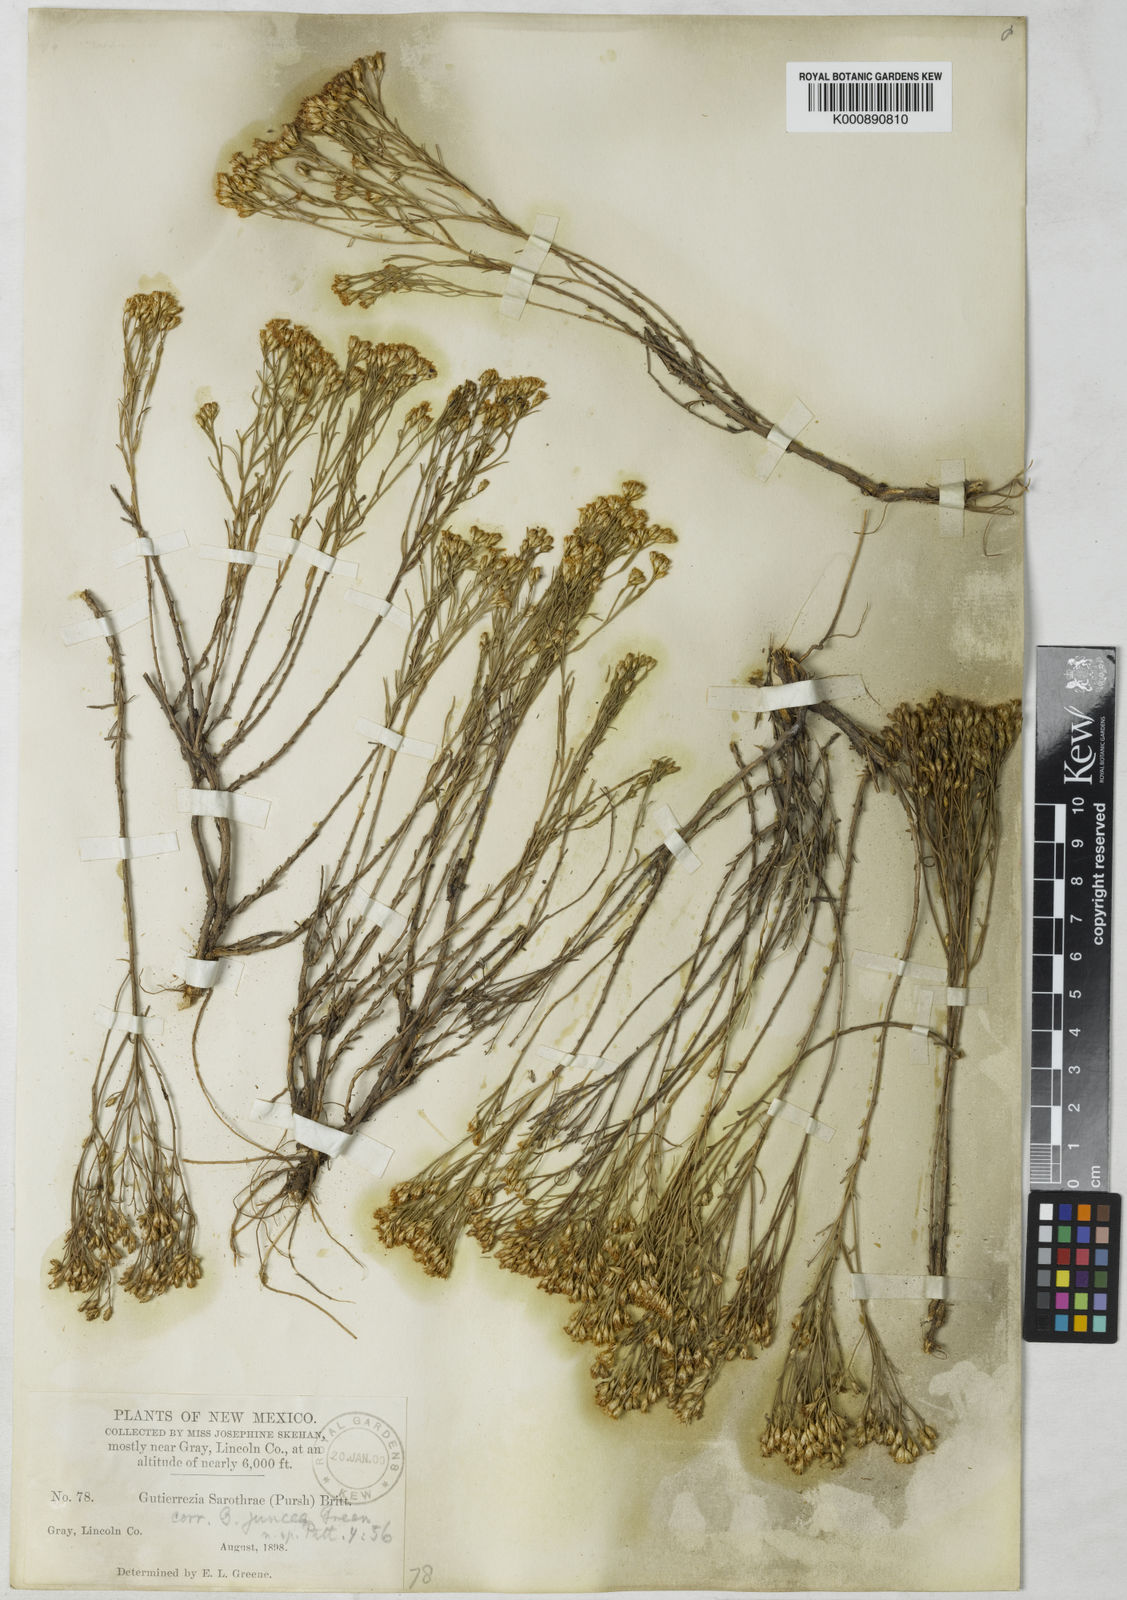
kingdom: Plantae
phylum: Tracheophyta
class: Magnoliopsida
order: Asterales
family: Asteraceae
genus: Gutierrezia
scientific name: Gutierrezia sarothrae
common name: Broom snakeweed
